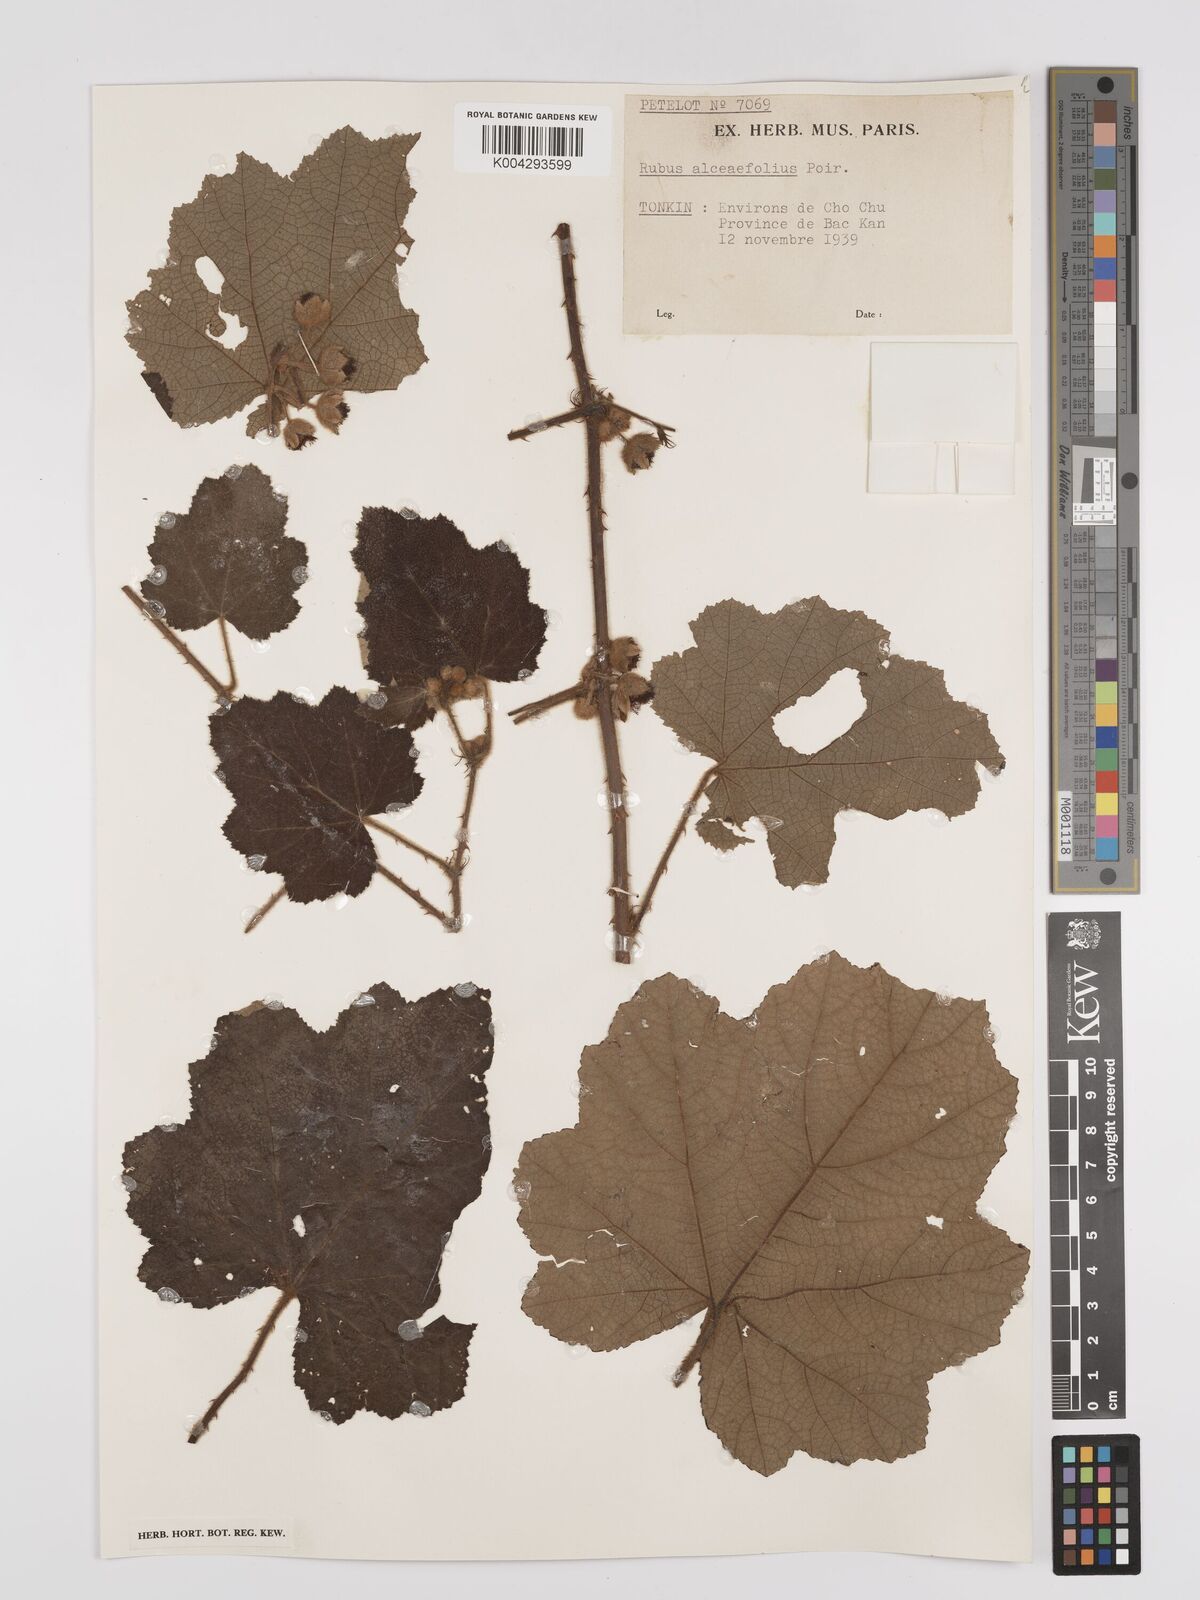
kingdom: Plantae
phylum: Tracheophyta
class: Magnoliopsida
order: Rosales
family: Rosaceae
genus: Rubus
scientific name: Rubus alceifolius
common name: Giant bramble
